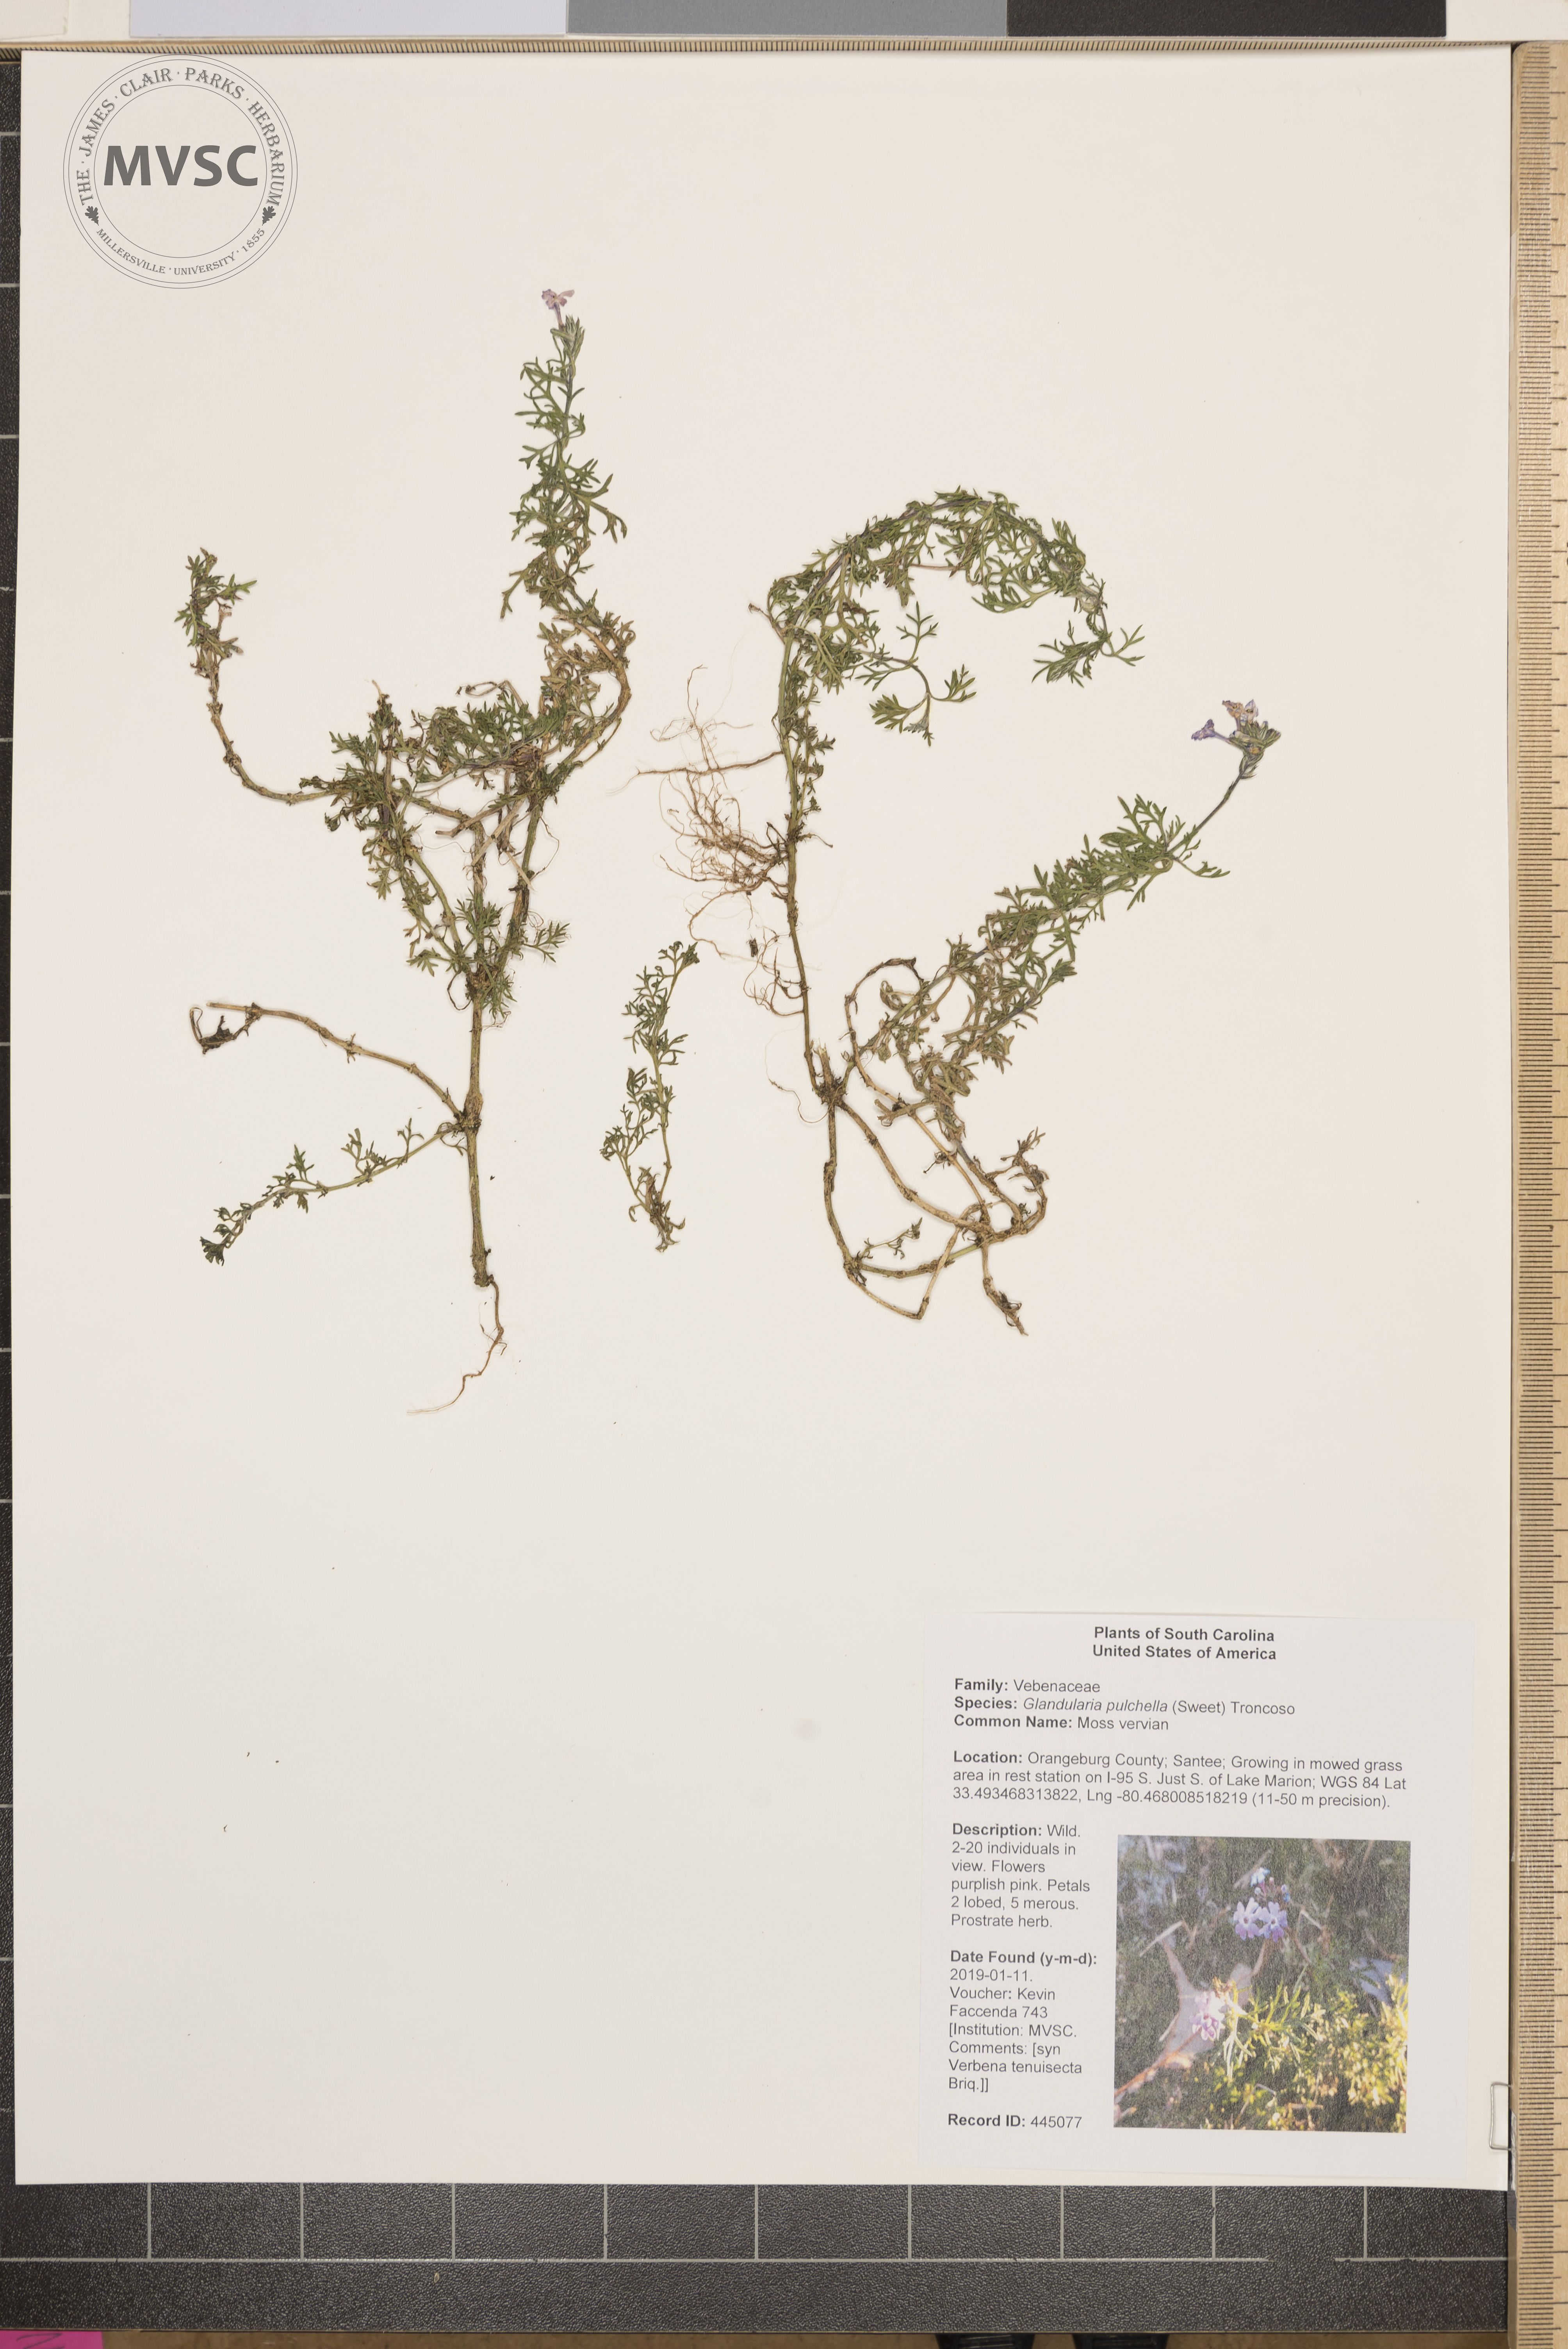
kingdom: Plantae
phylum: Tracheophyta
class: Magnoliopsida
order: Lamiales
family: Verbenaceae
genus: Verbena
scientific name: Verbena tenera
